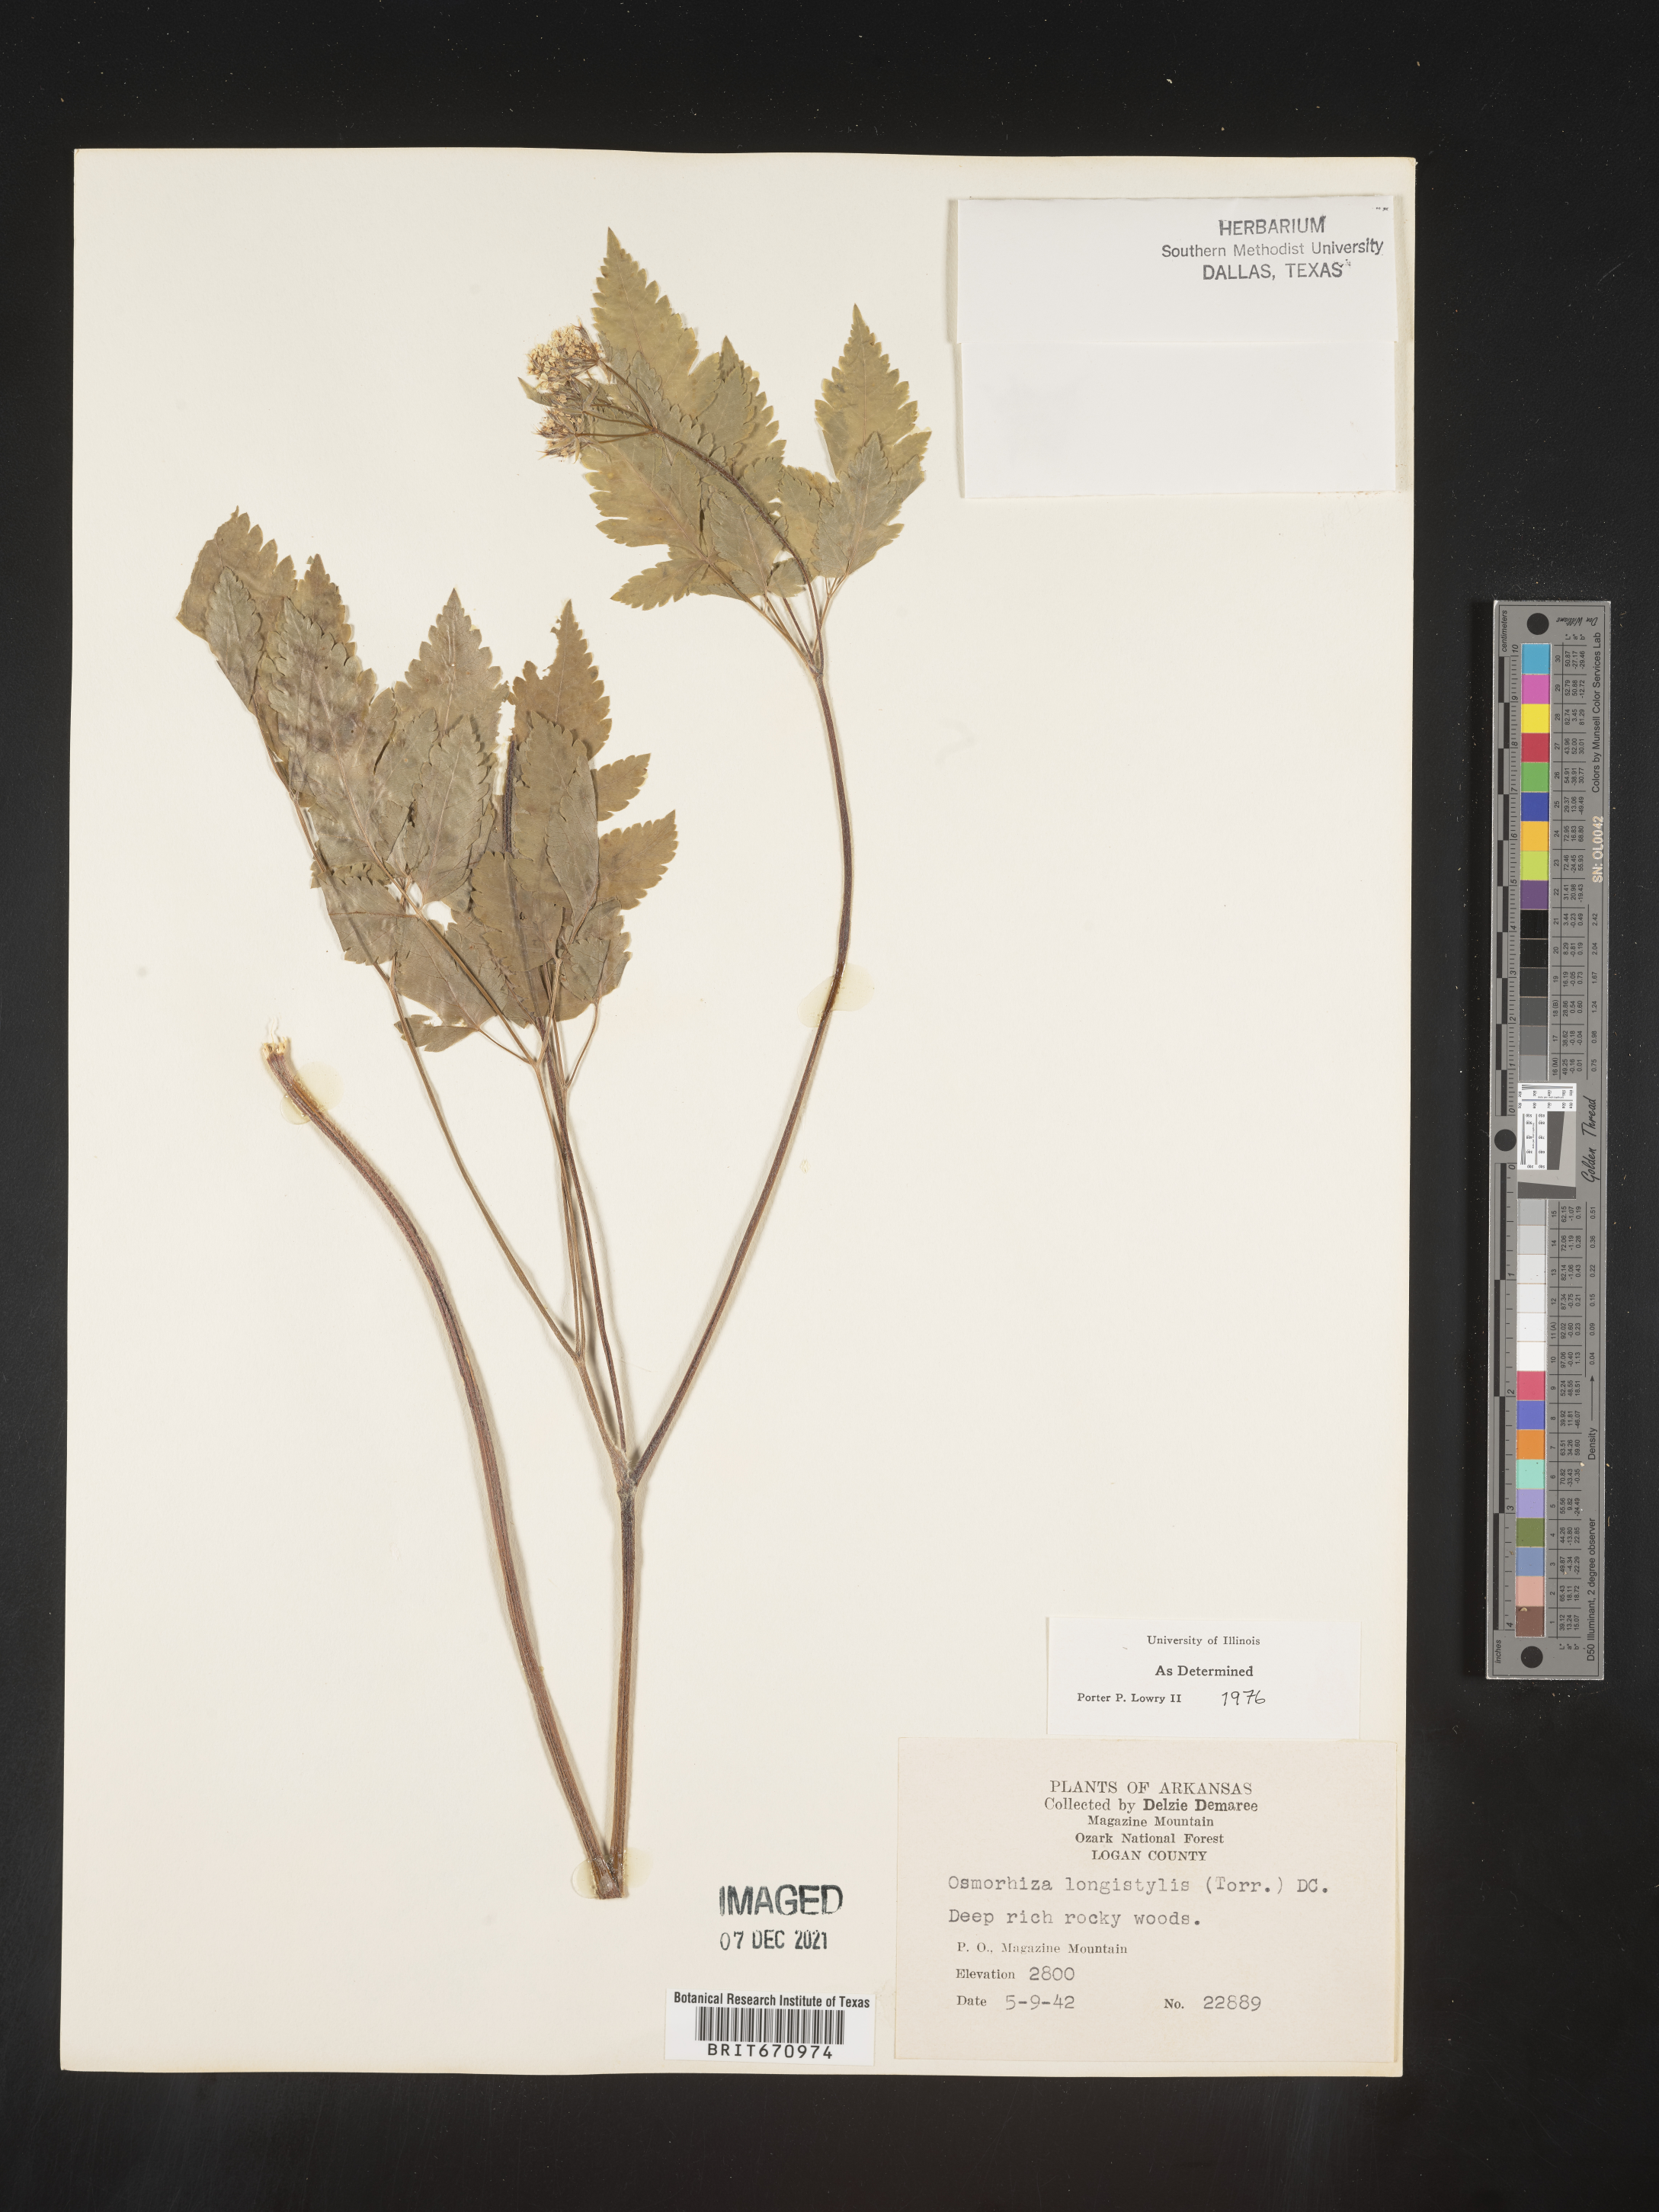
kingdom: Plantae
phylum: Tracheophyta
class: Magnoliopsida
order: Apiales
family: Apiaceae
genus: Osmorhiza
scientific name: Osmorhiza longistylis
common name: Smooth sweet cicely
